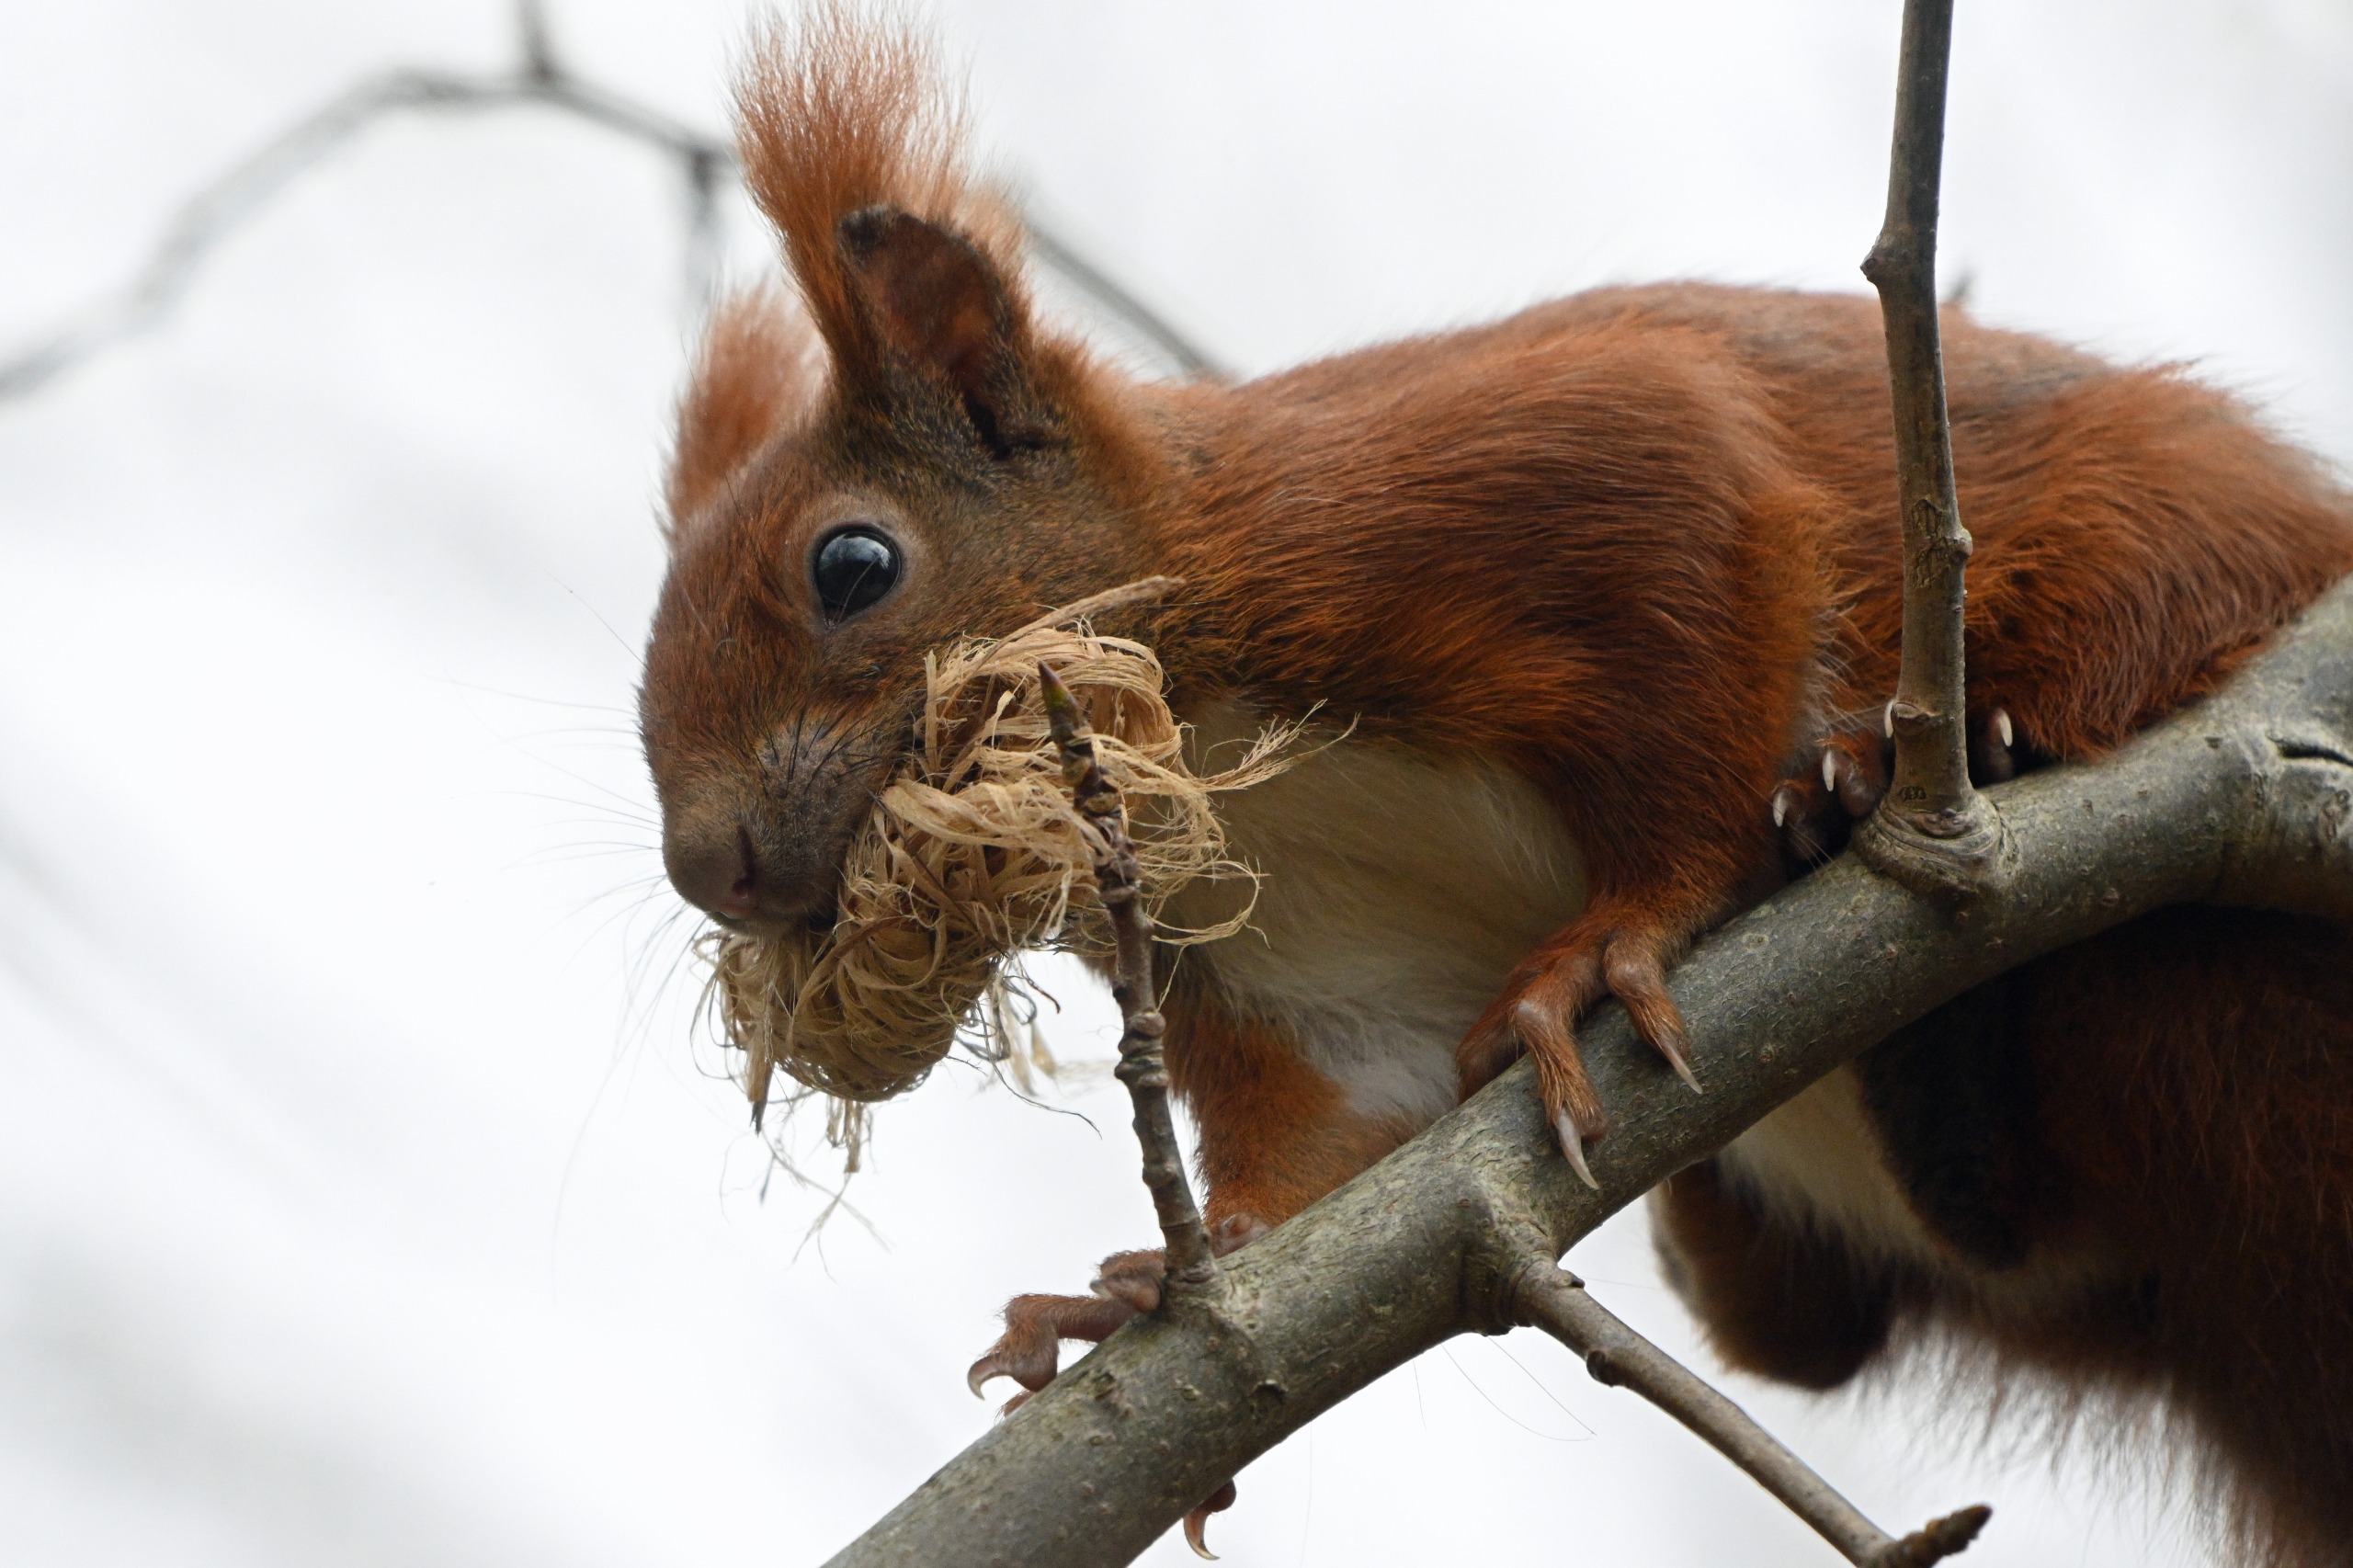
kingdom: Animalia
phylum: Chordata
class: Mammalia
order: Rodentia
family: Sciuridae
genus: Sciurus
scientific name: Sciurus vulgaris
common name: Egern
